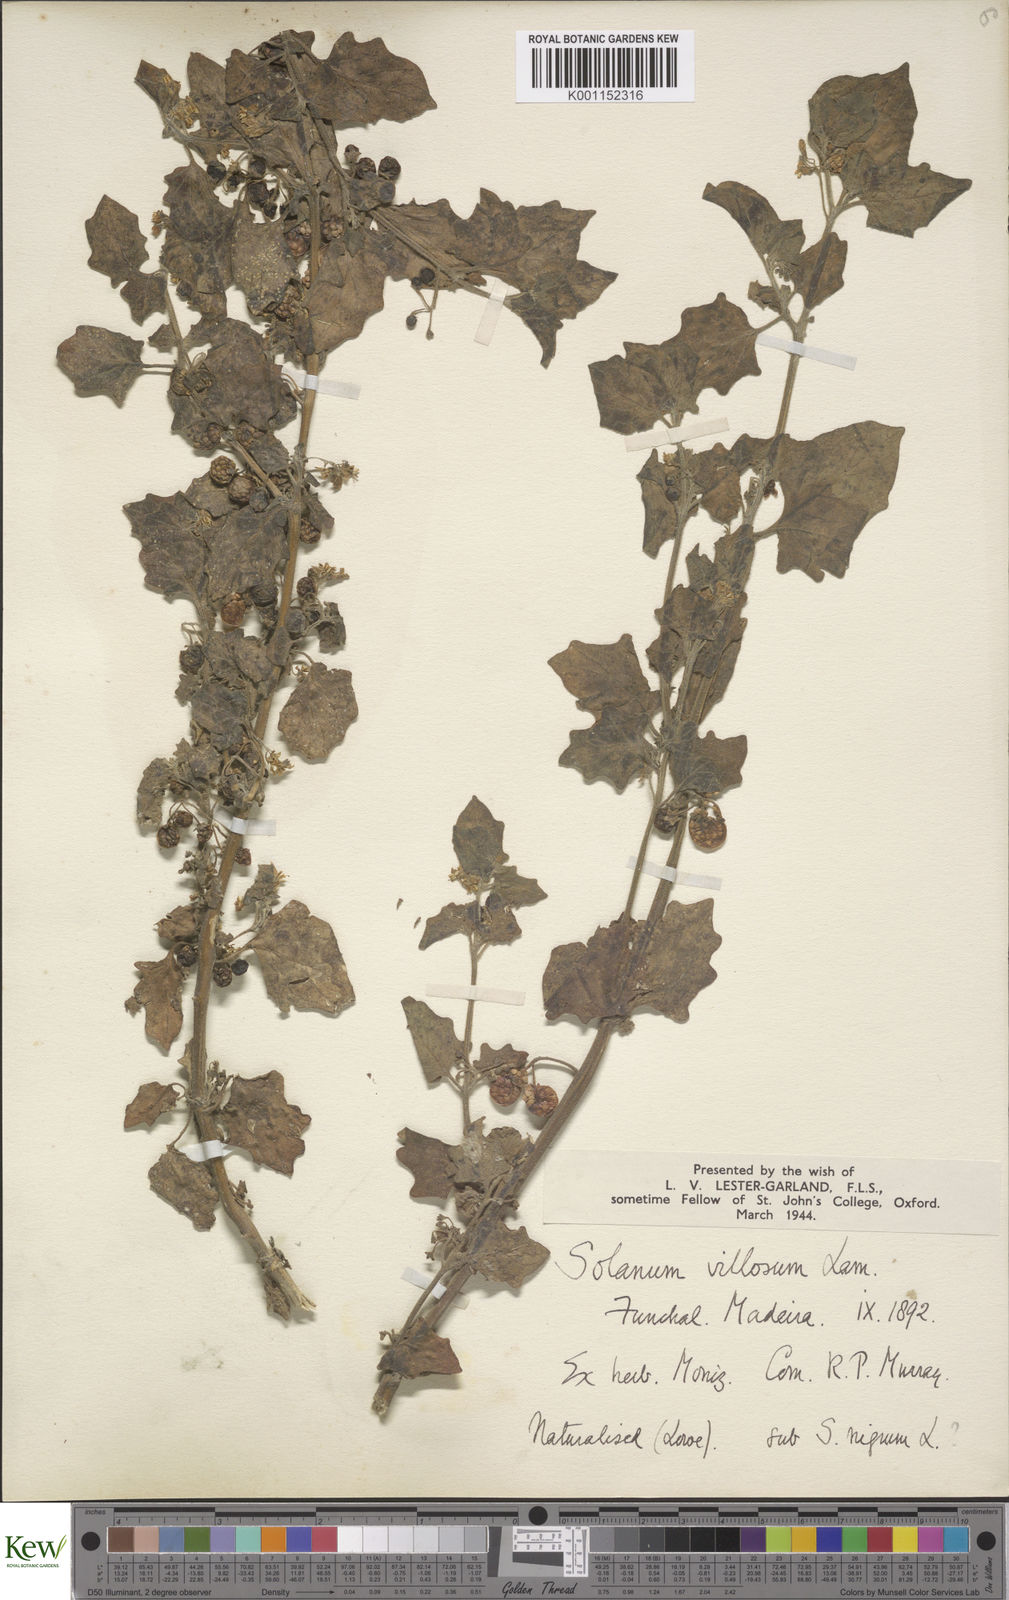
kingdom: Plantae
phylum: Tracheophyta
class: Magnoliopsida
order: Solanales
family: Solanaceae
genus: Solanum
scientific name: Solanum villosum
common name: Red nightshade
